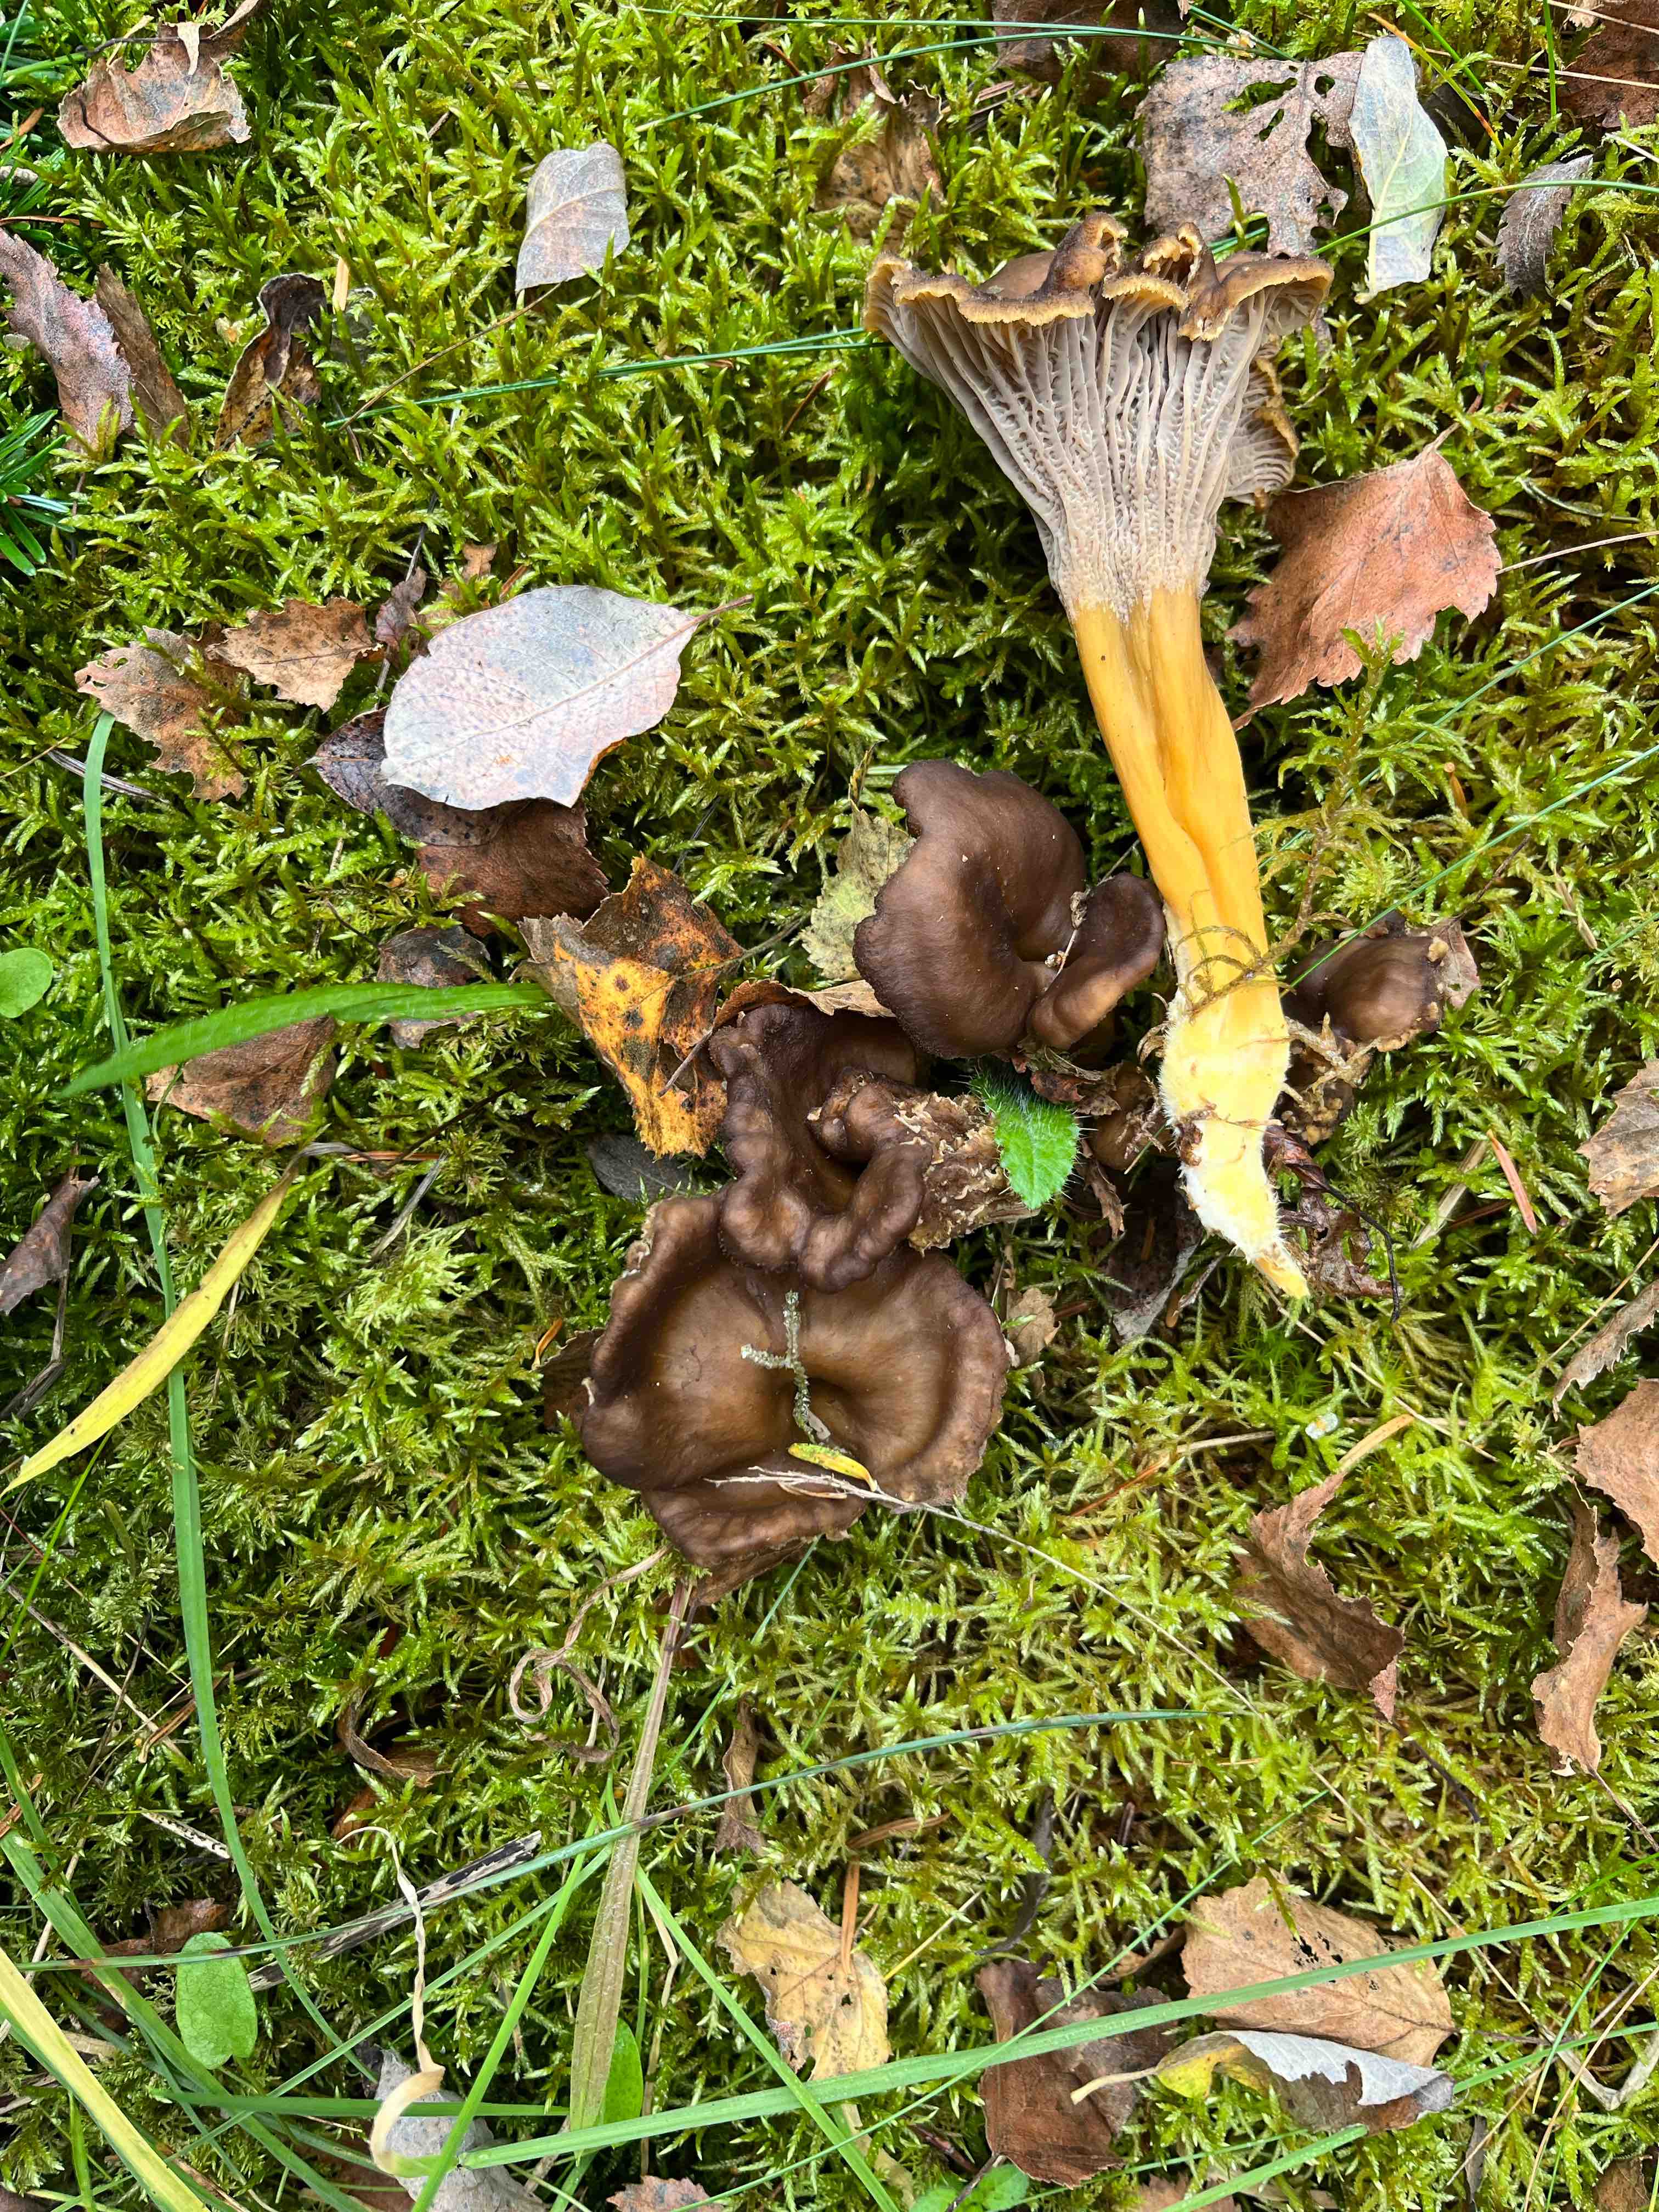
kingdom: Fungi
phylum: Basidiomycota
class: Agaricomycetes
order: Cantharellales
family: Hydnaceae
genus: Craterellus
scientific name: Craterellus tubaeformis
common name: tragt-kantarel
